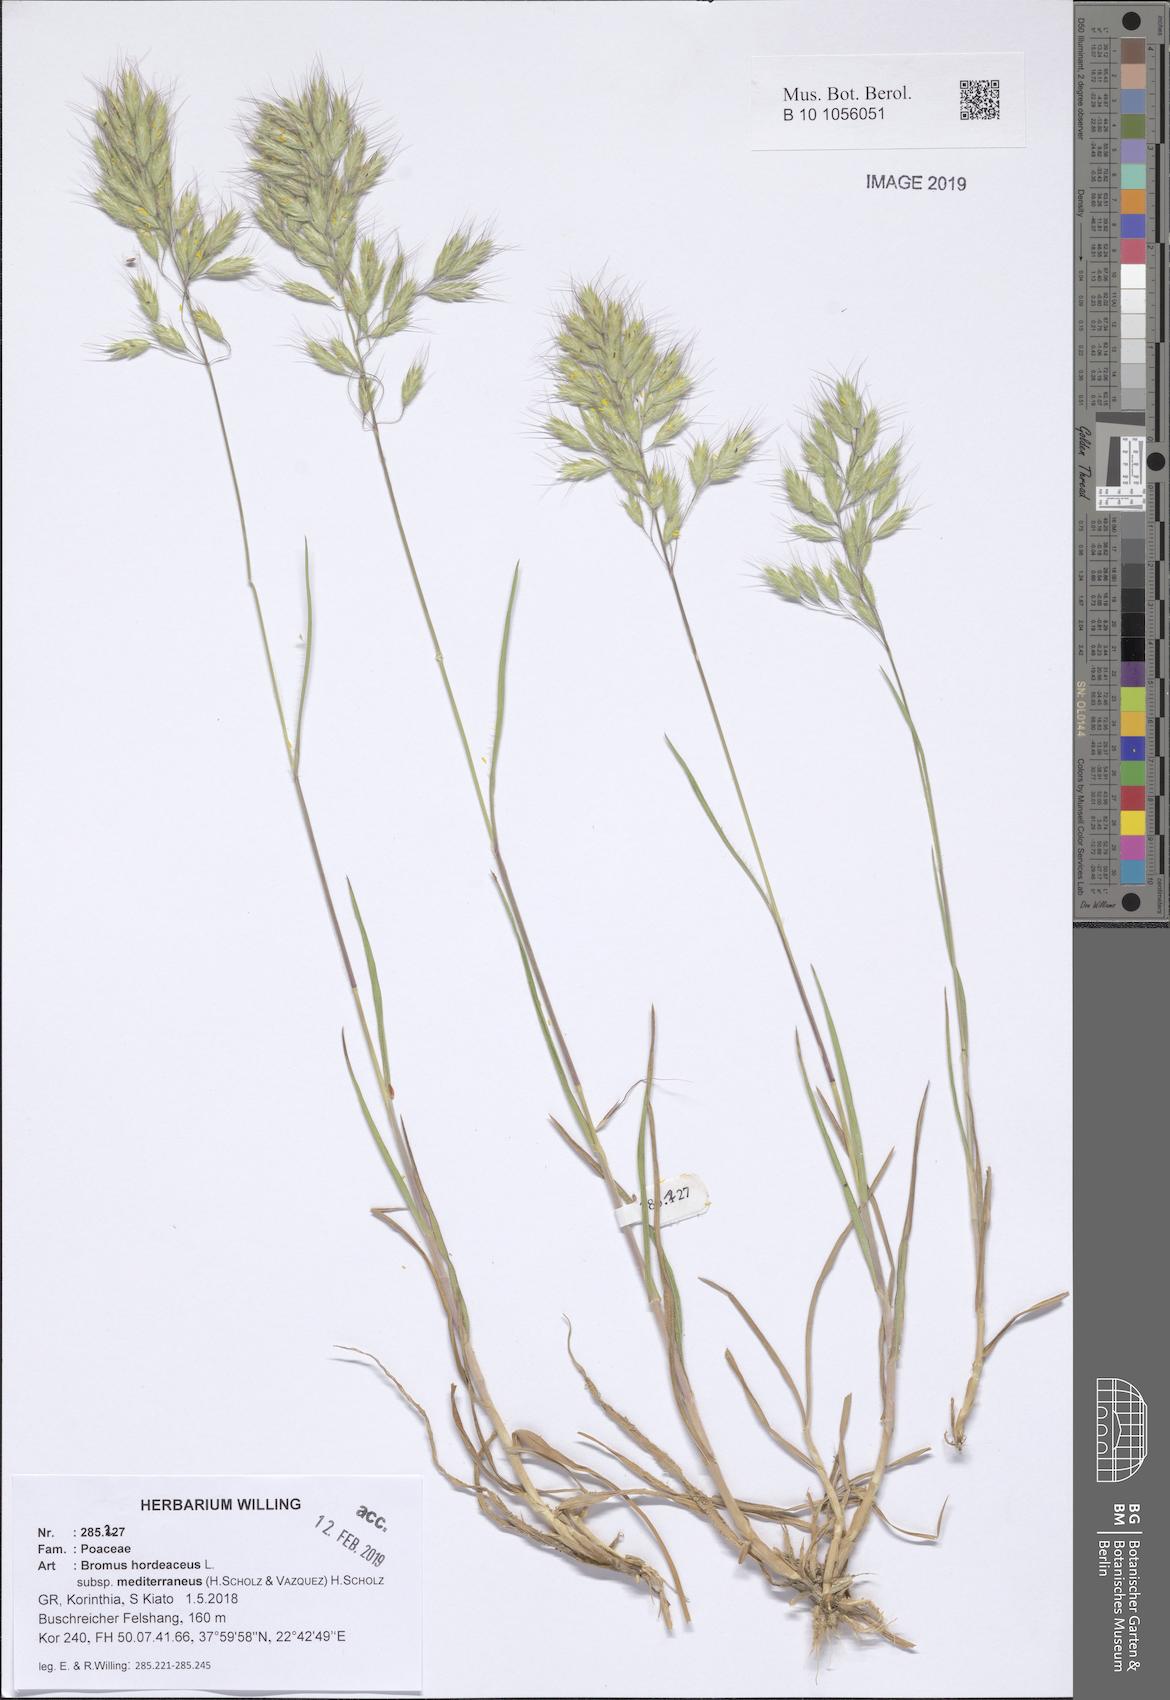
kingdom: Plantae
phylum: Tracheophyta
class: Liliopsida
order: Poales
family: Poaceae
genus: Bromus
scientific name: Bromus hordeaceus
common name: Soft brome
